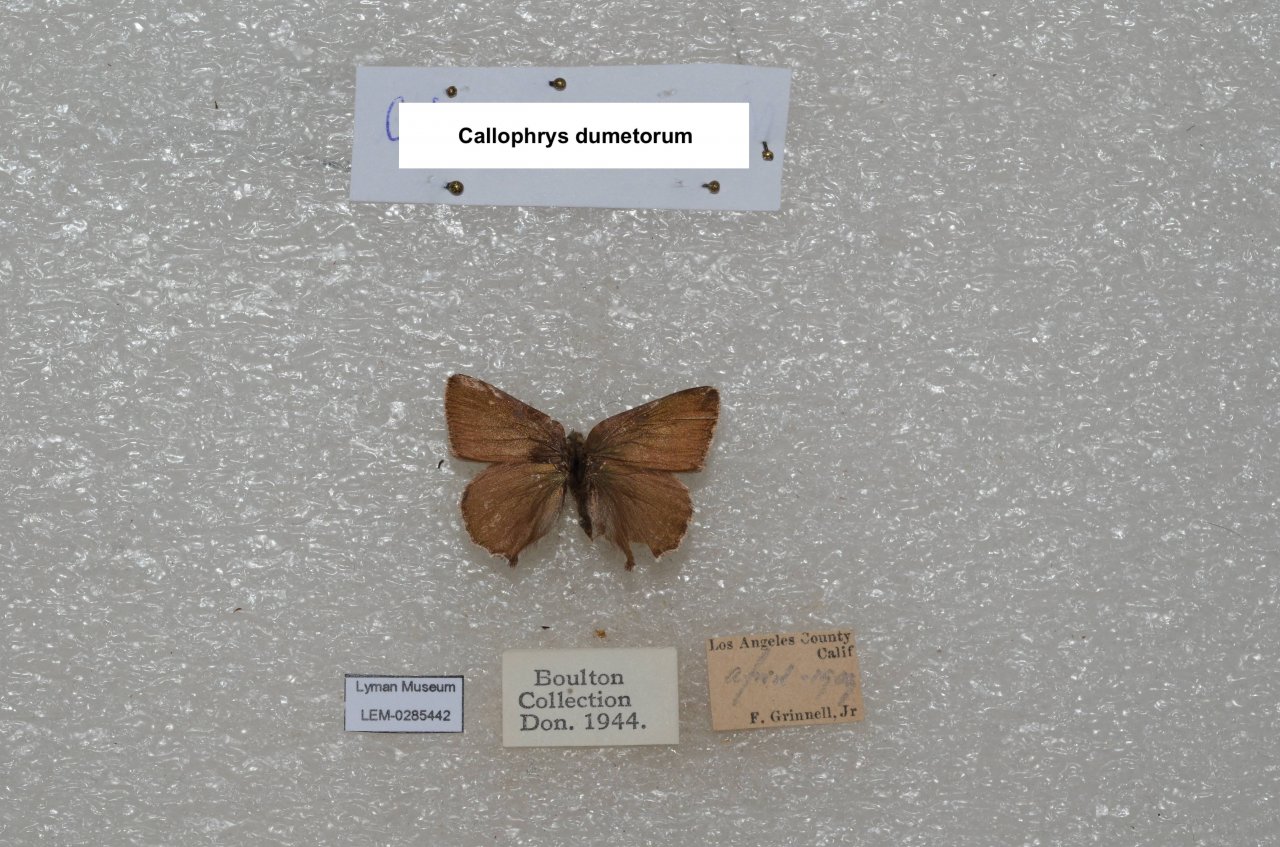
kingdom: Animalia
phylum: Arthropoda
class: Insecta
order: Lepidoptera
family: Lycaenidae
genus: Callophrys
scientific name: Callophrys dumetorum
